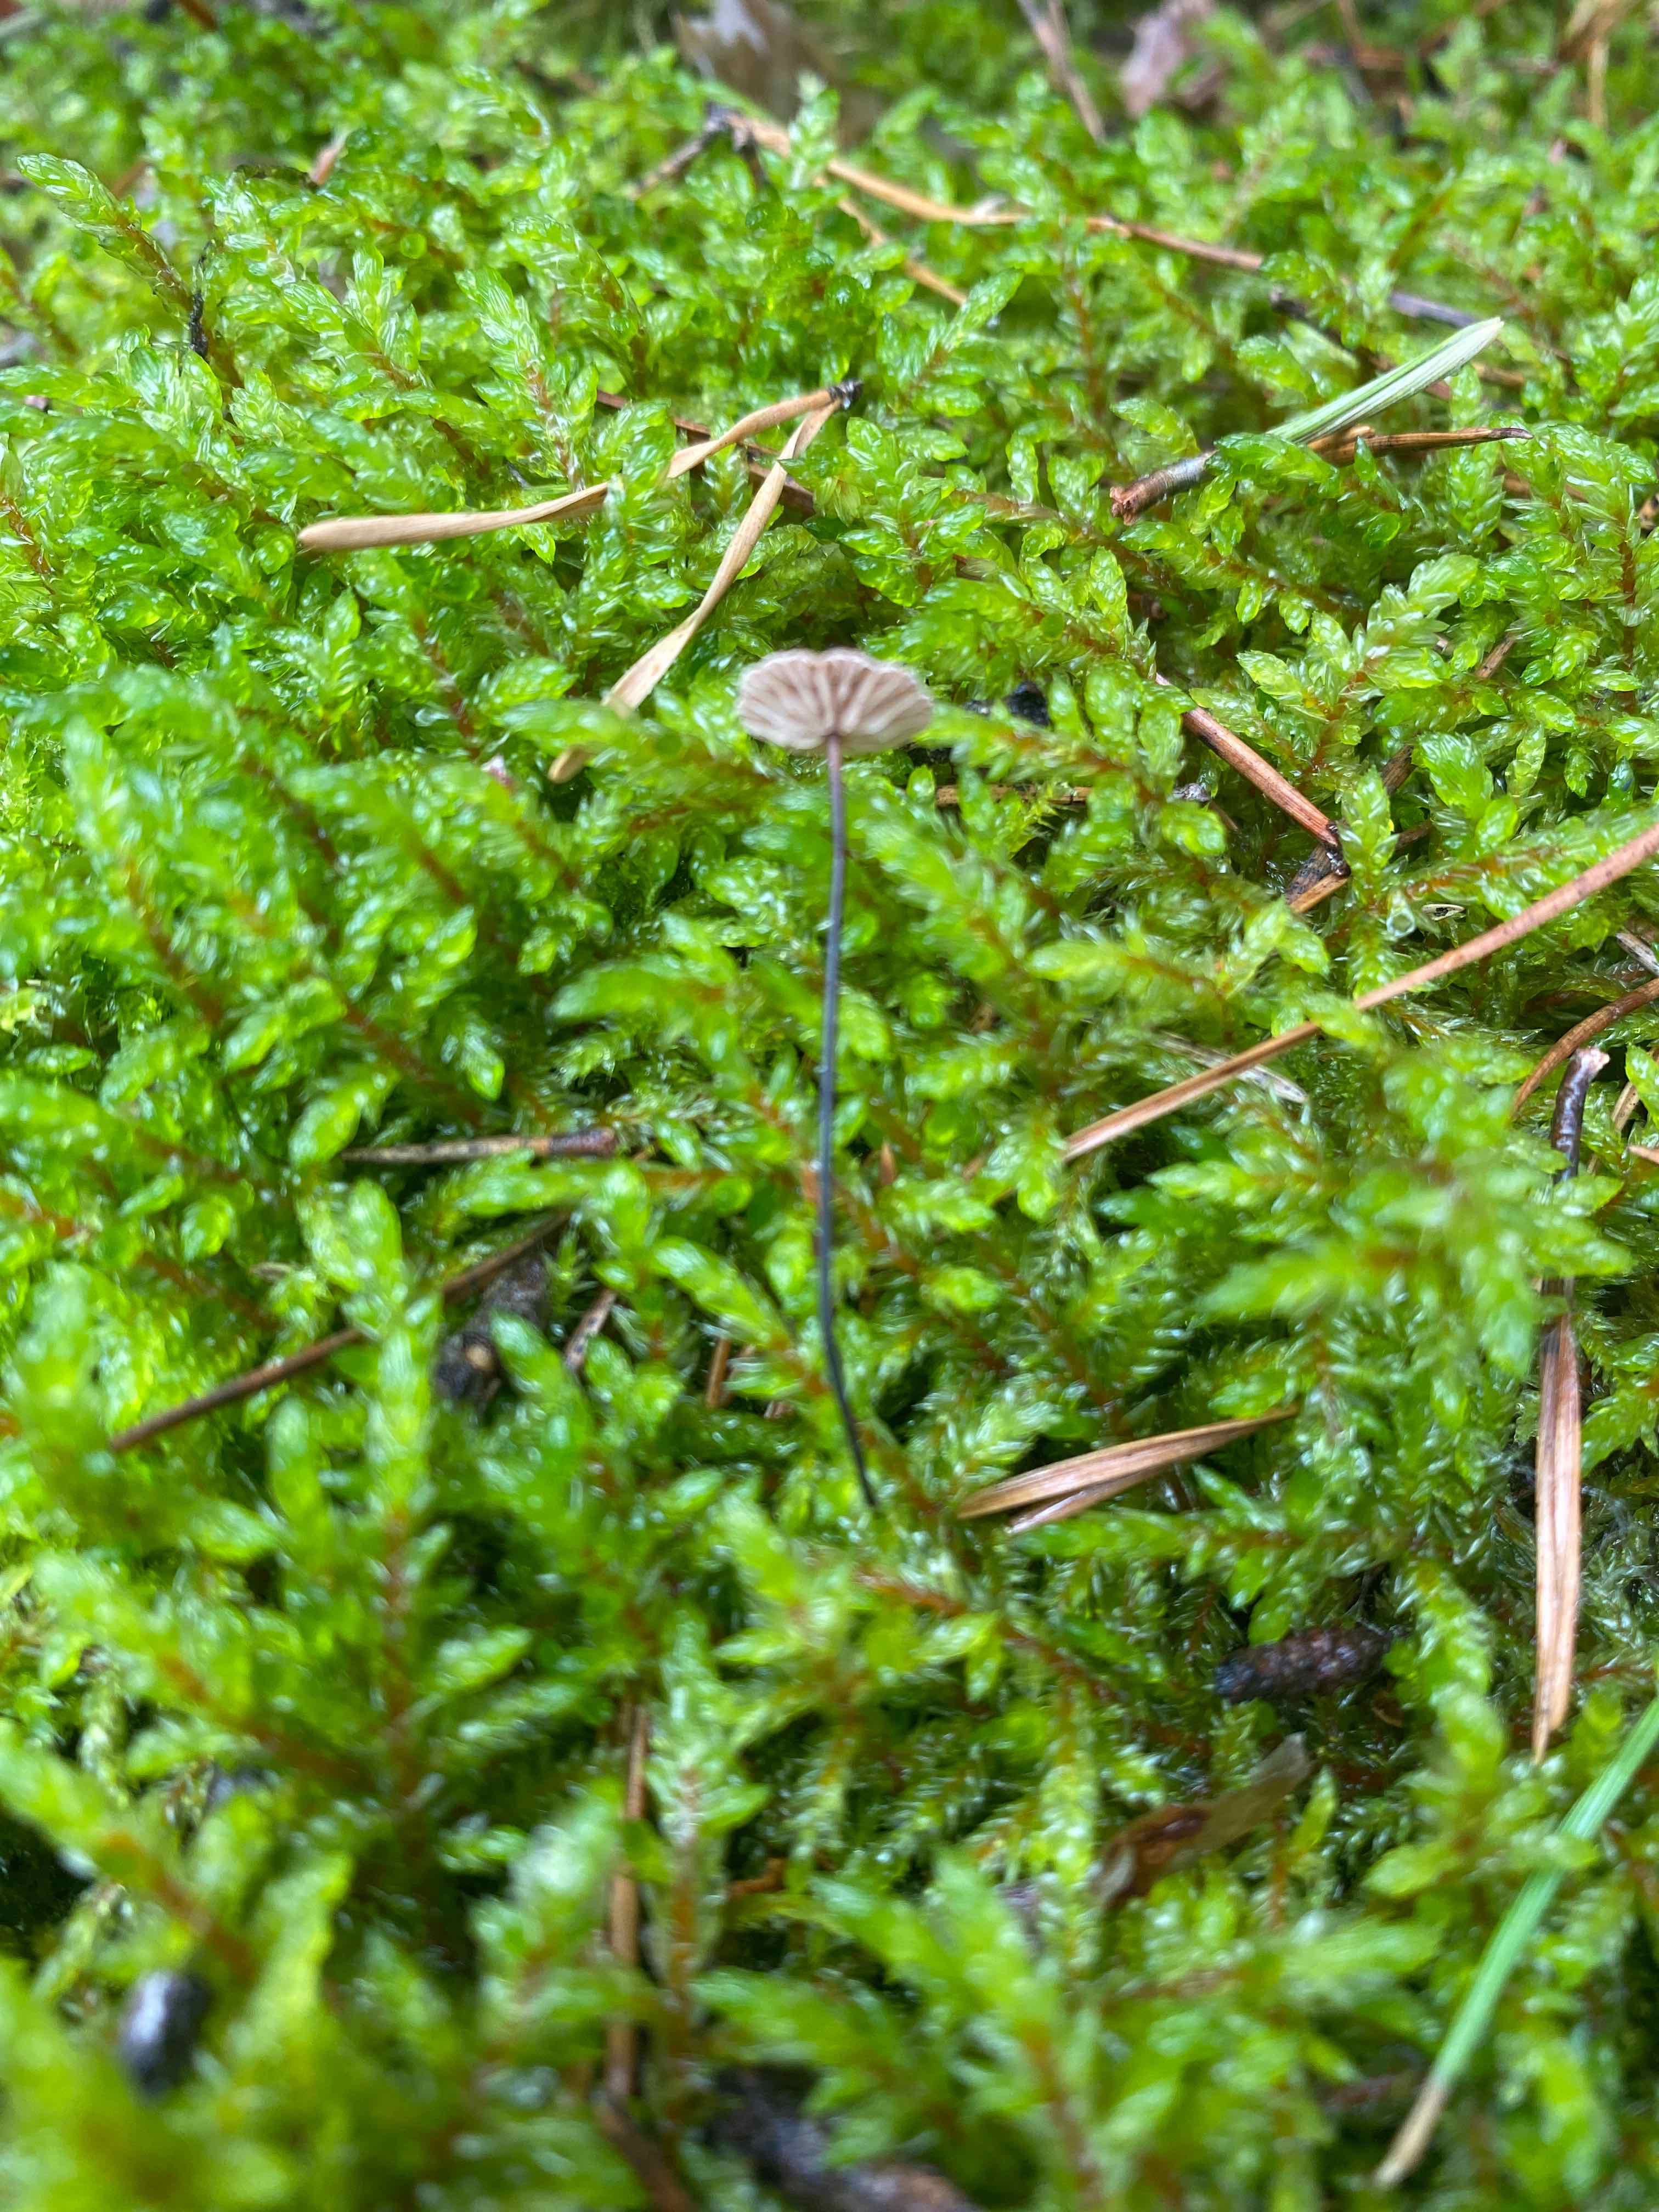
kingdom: Fungi
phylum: Basidiomycota
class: Agaricomycetes
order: Agaricales
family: Omphalotaceae
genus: Gymnopus
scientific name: Gymnopus androsaceus
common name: trådstokket fladhat
